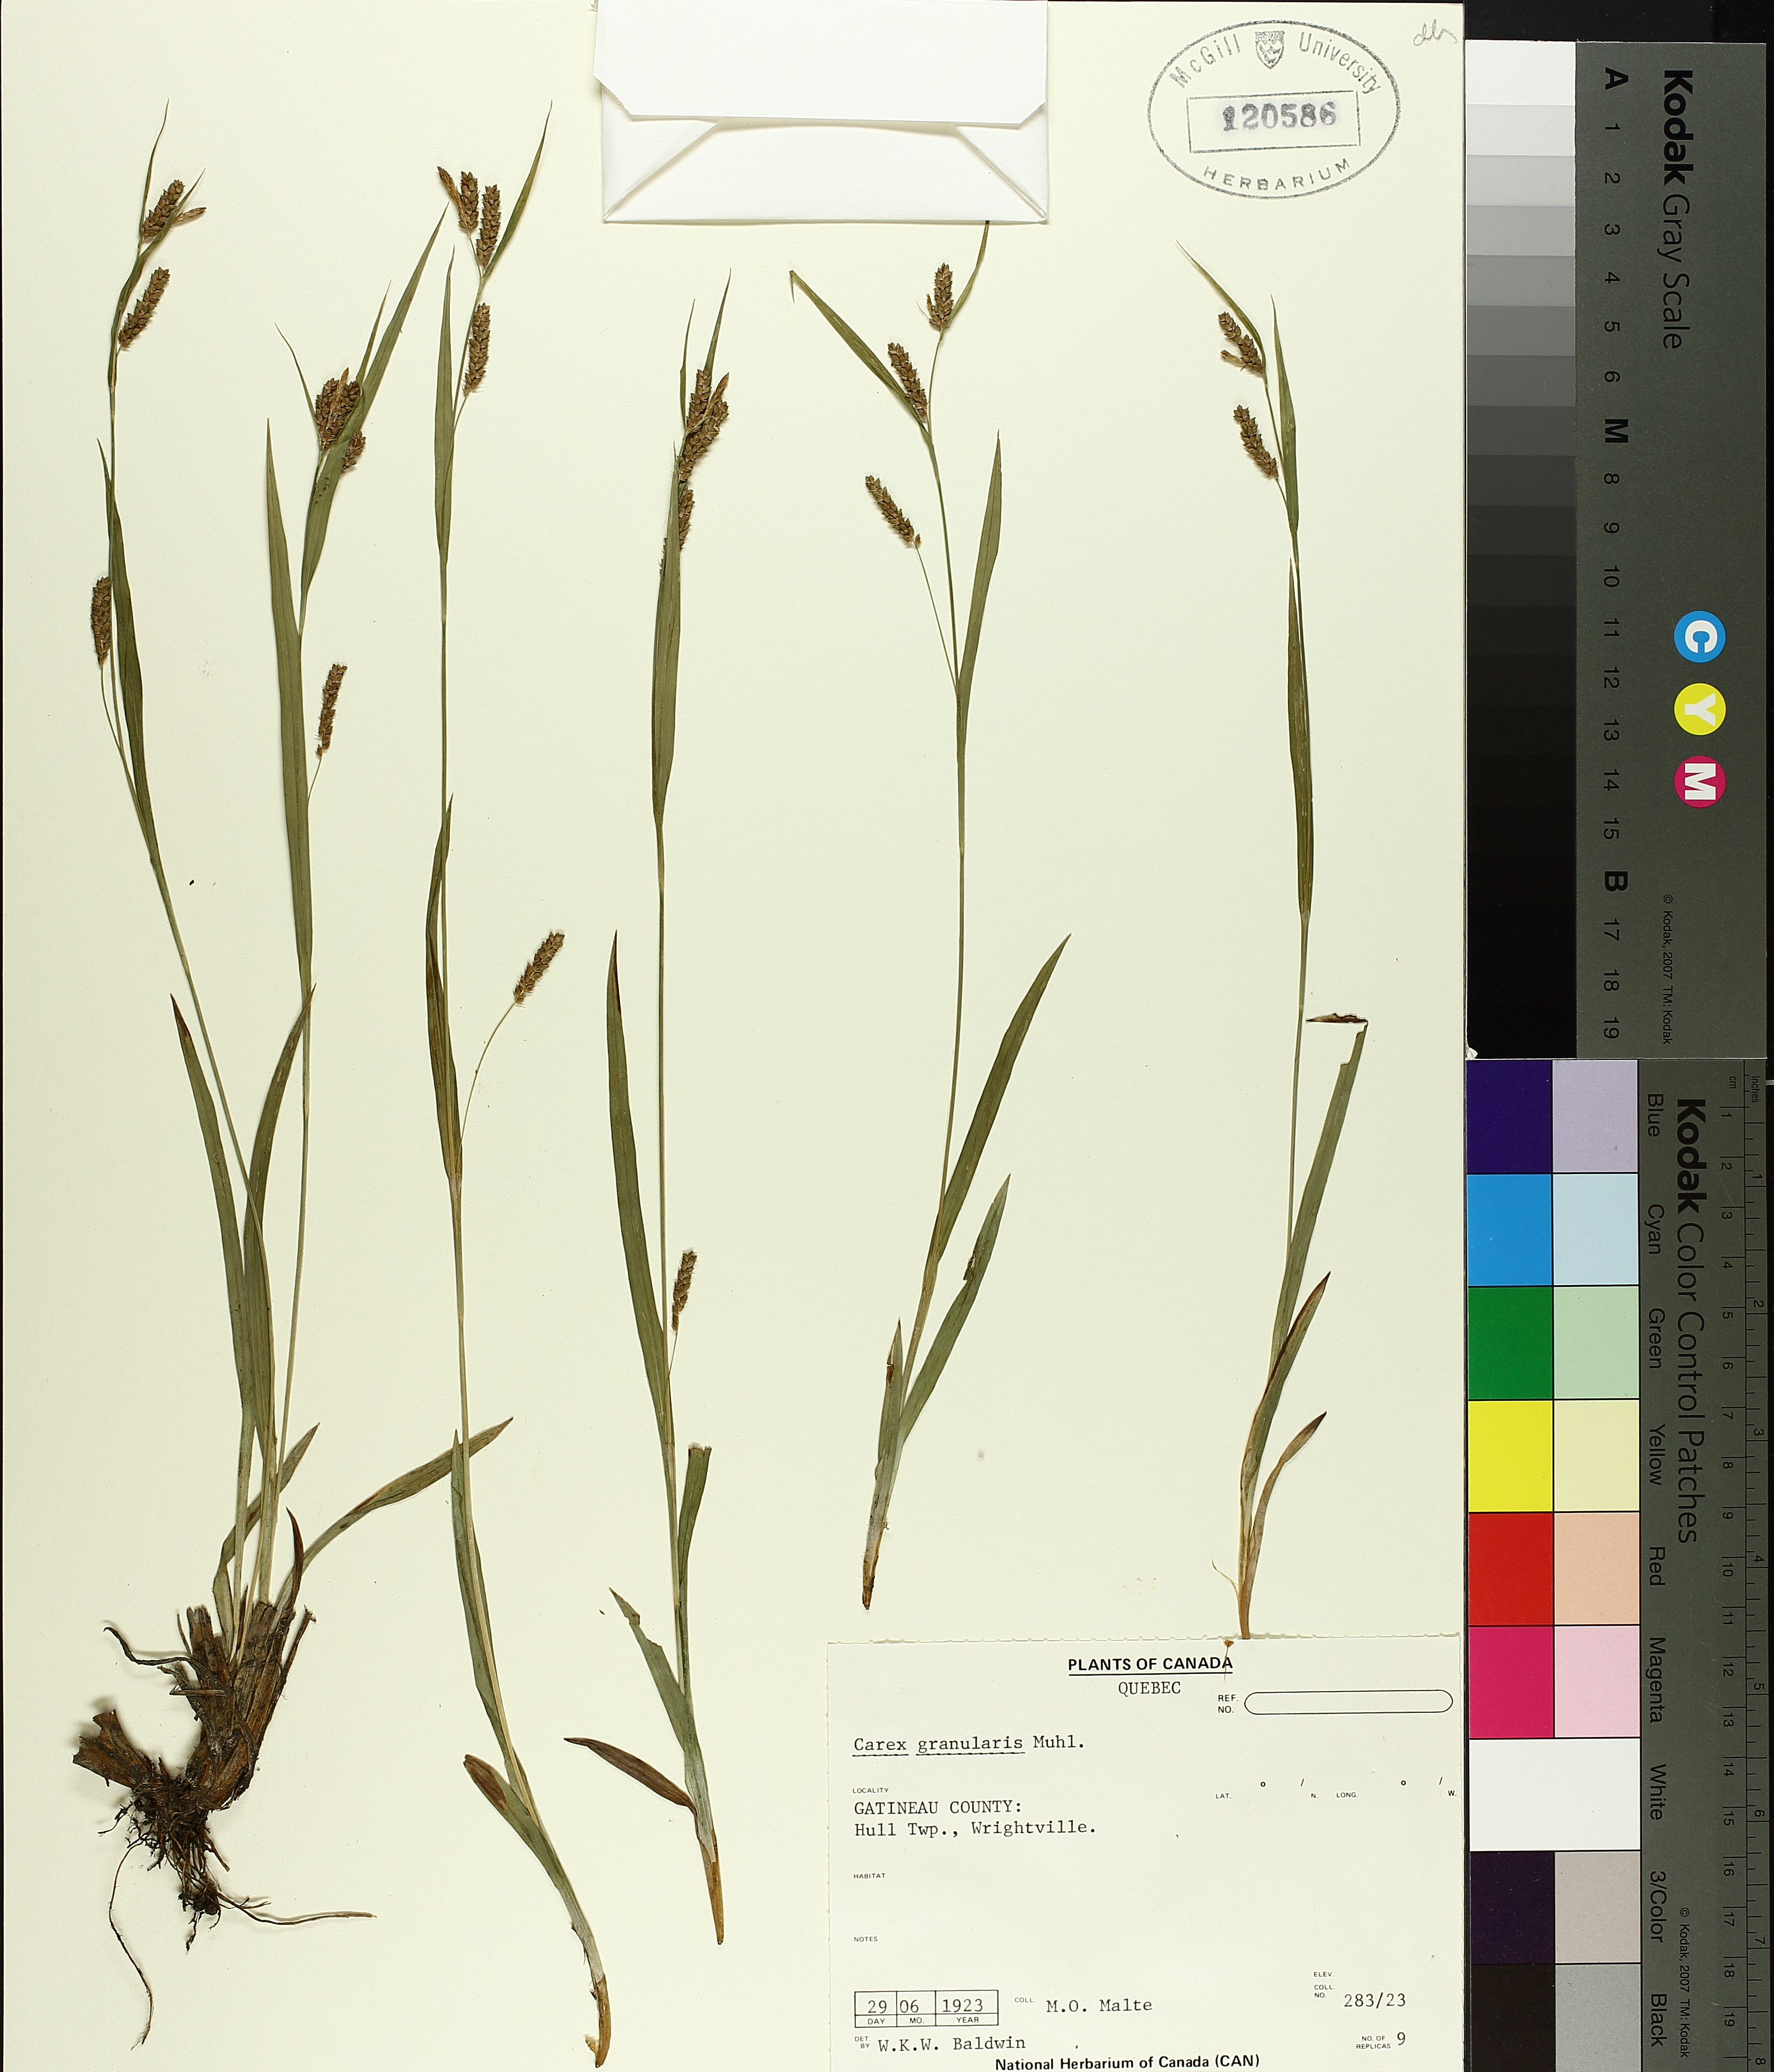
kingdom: Plantae
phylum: Tracheophyta
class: Liliopsida
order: Poales
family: Cyperaceae
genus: Carex
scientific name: Carex granularis
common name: Granular sedge
